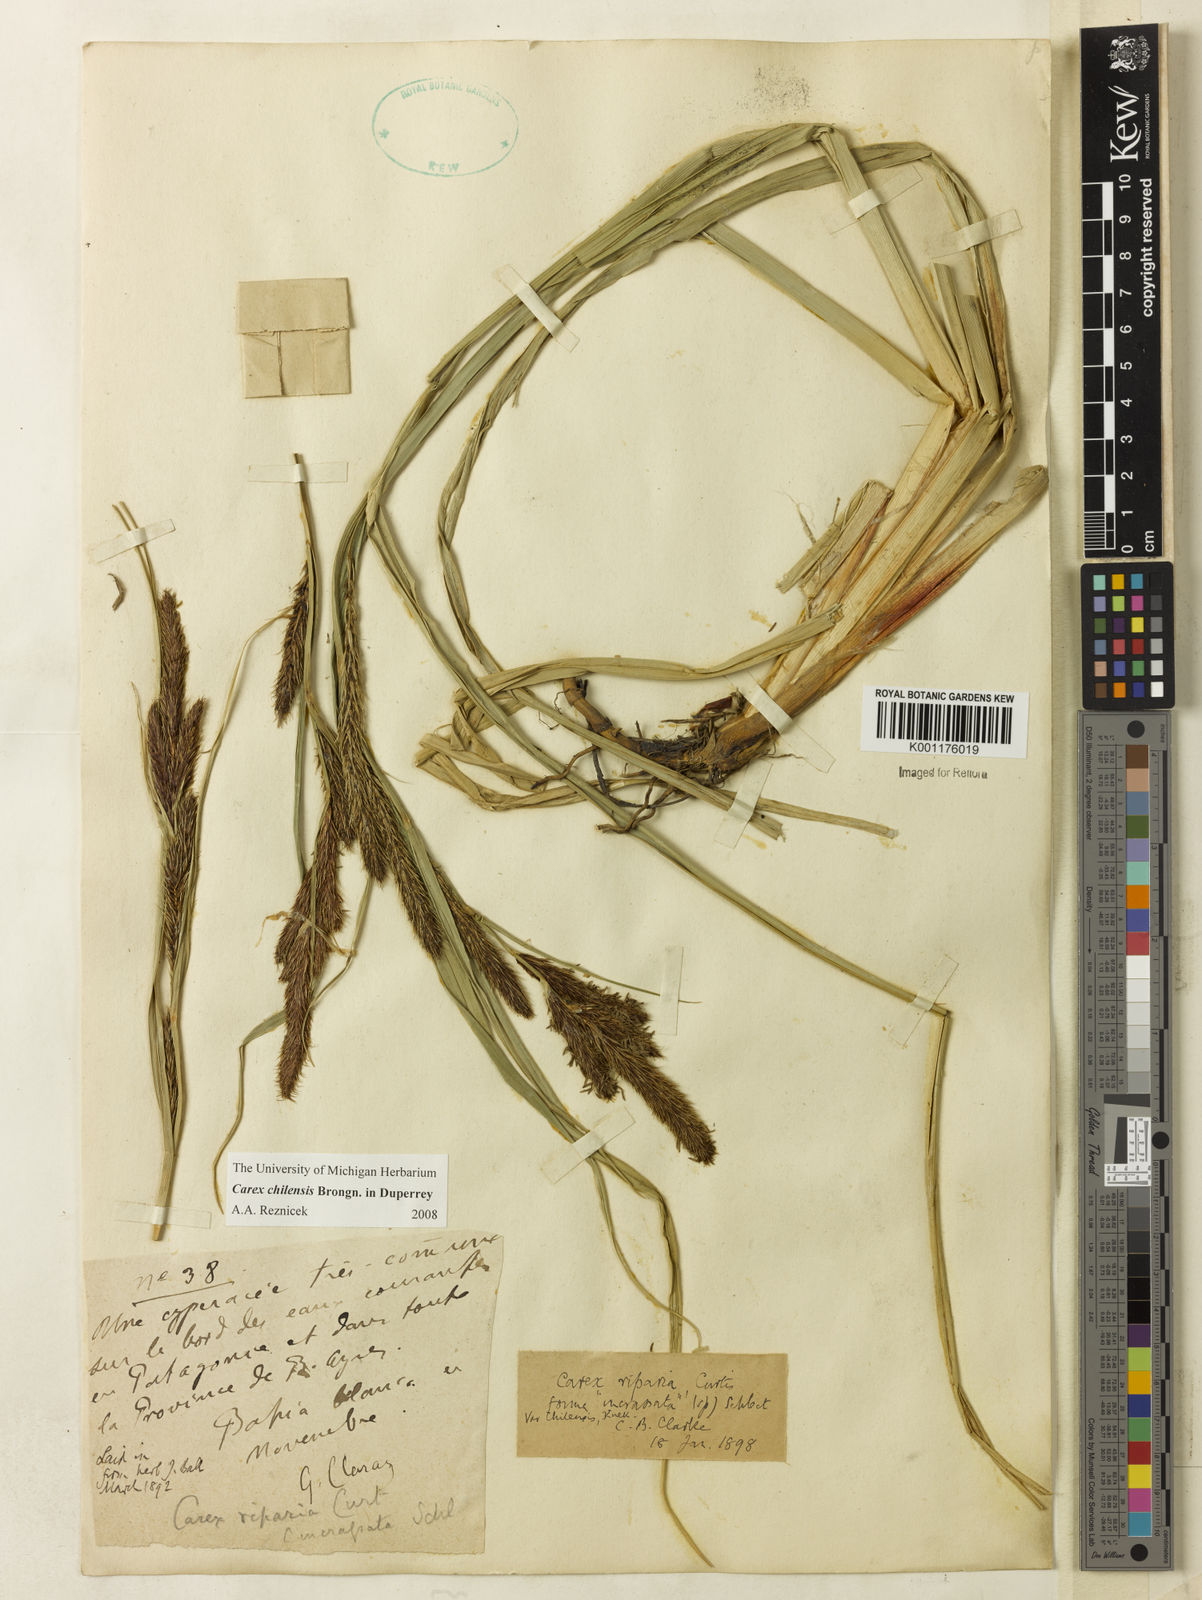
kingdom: Plantae
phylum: Tracheophyta
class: Liliopsida
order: Poales
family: Cyperaceae
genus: Carex
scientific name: Carex riparia
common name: Greater pond-sedge
